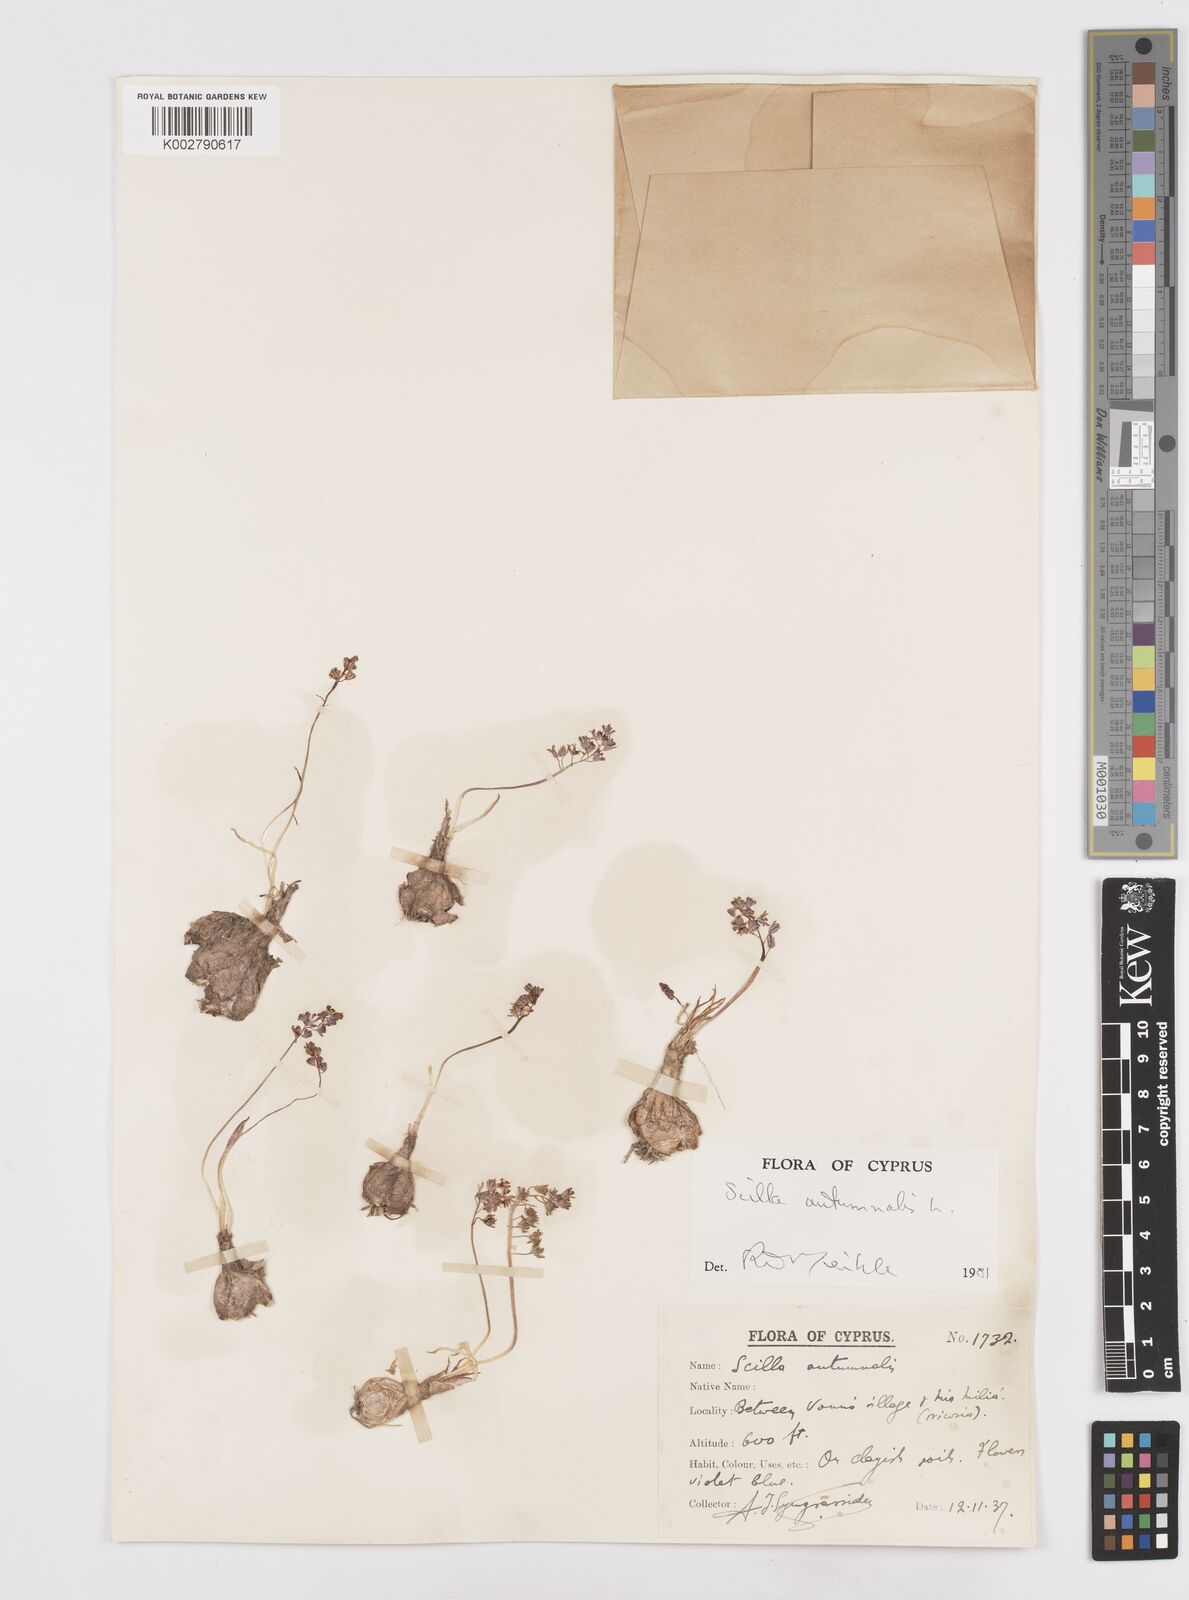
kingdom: Plantae
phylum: Tracheophyta
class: Liliopsida
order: Asparagales
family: Asparagaceae
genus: Prospero
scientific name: Prospero autumnale
